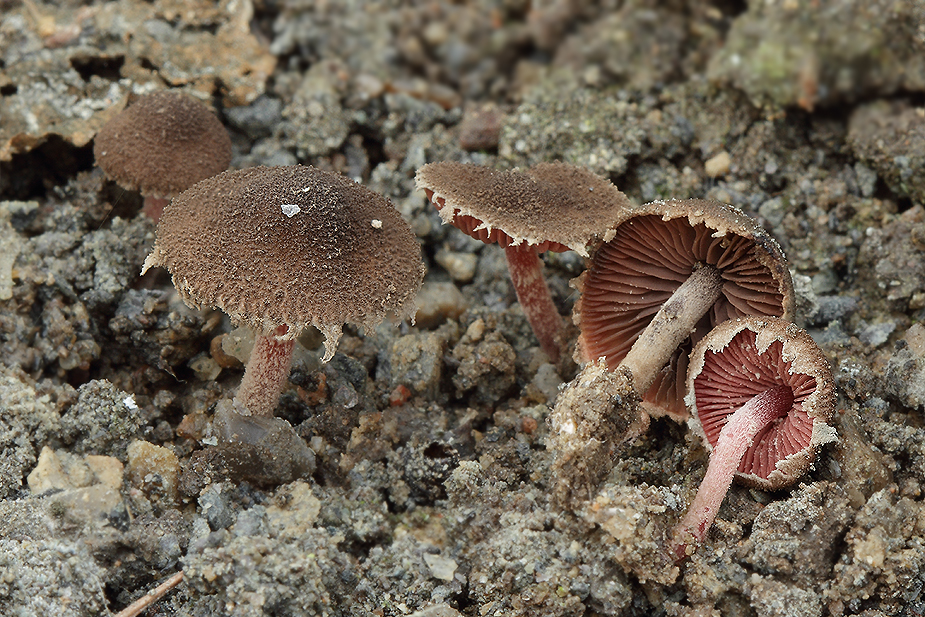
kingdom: Fungi
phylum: Basidiomycota
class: Agaricomycetes
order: Agaricales
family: Agaricaceae
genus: Melanophyllum
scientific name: Melanophyllum haematospermum
